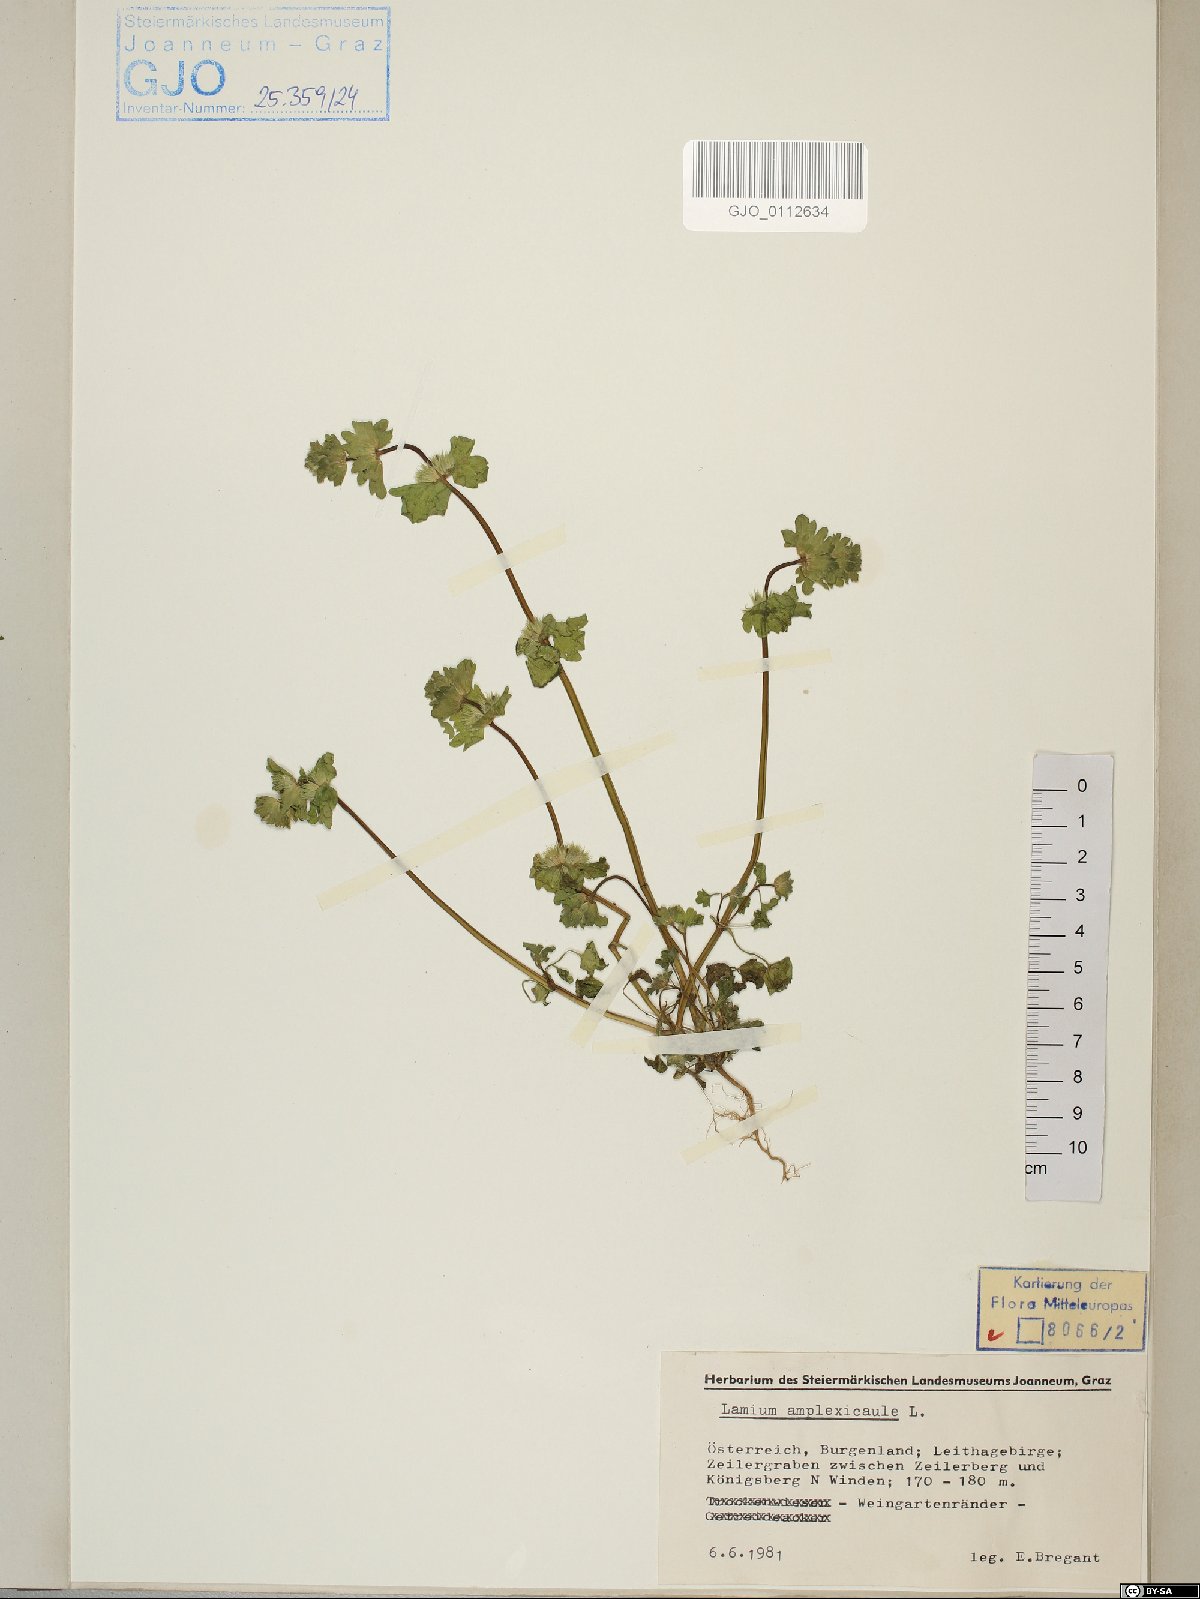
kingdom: Plantae
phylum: Tracheophyta
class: Magnoliopsida
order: Lamiales
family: Lamiaceae
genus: Lamium
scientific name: Lamium amplexicaule
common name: Henbit dead-nettle
